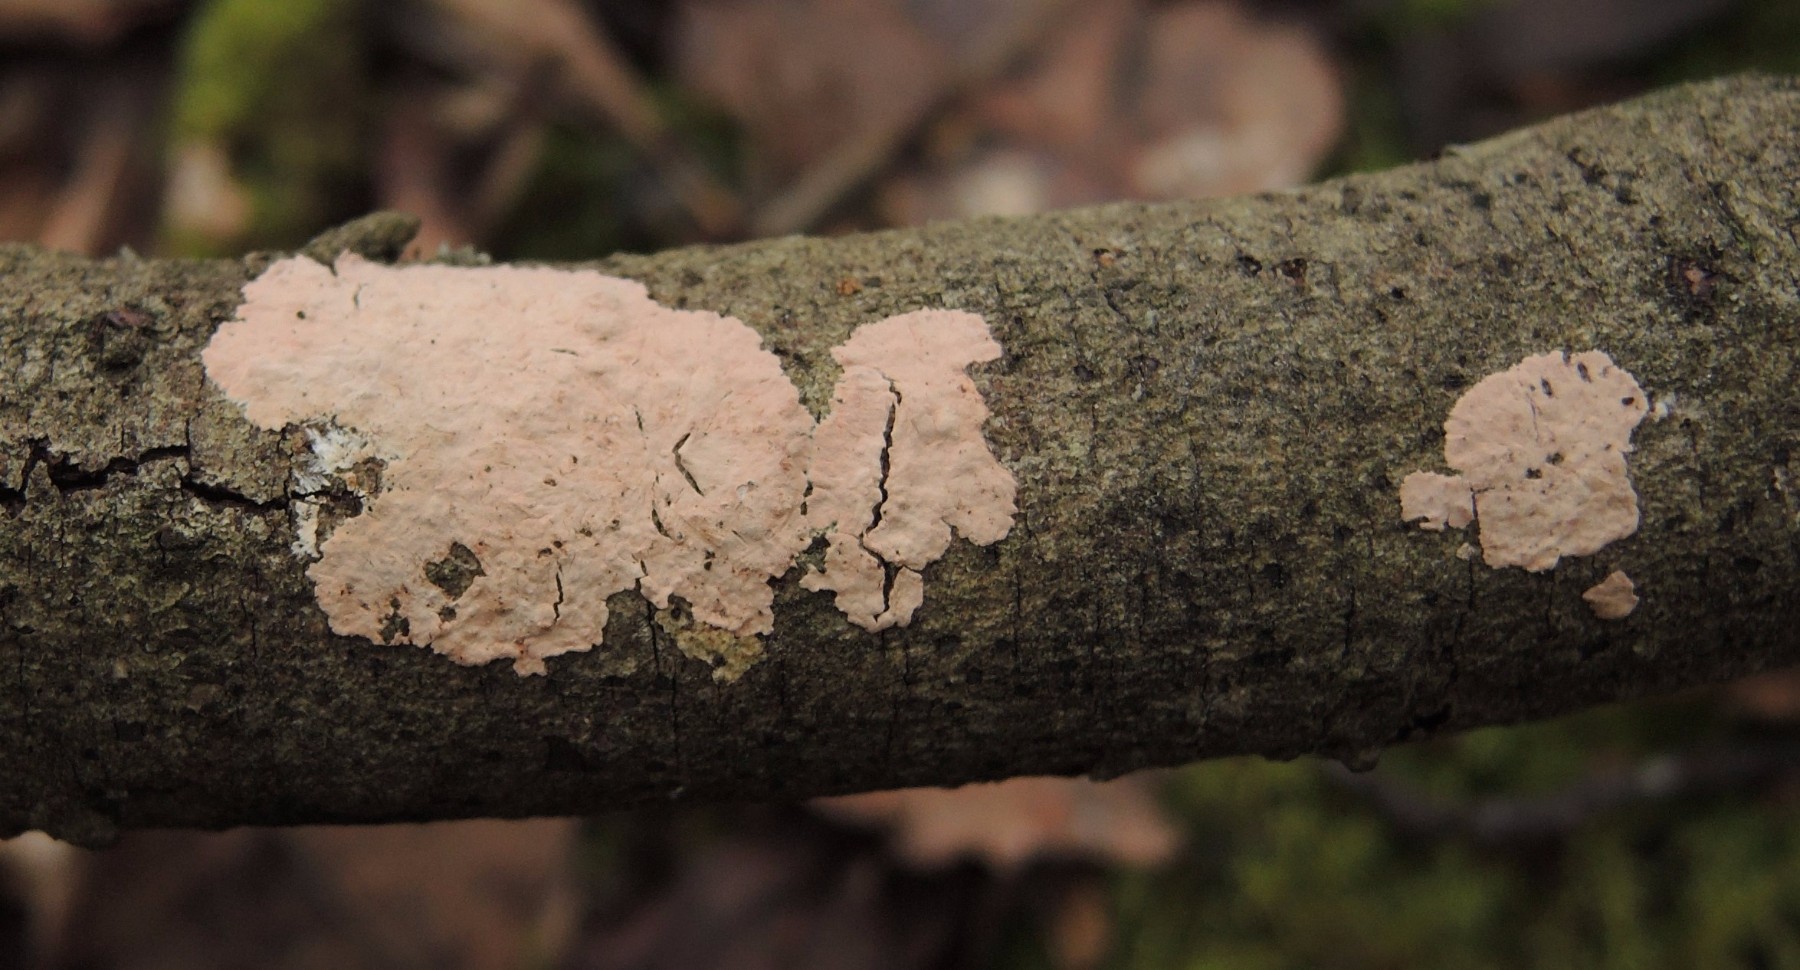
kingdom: Fungi
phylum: Basidiomycota
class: Agaricomycetes
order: Corticiales
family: Corticiaceae
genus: Corticium
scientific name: Corticium roseum
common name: rosa barkskind
